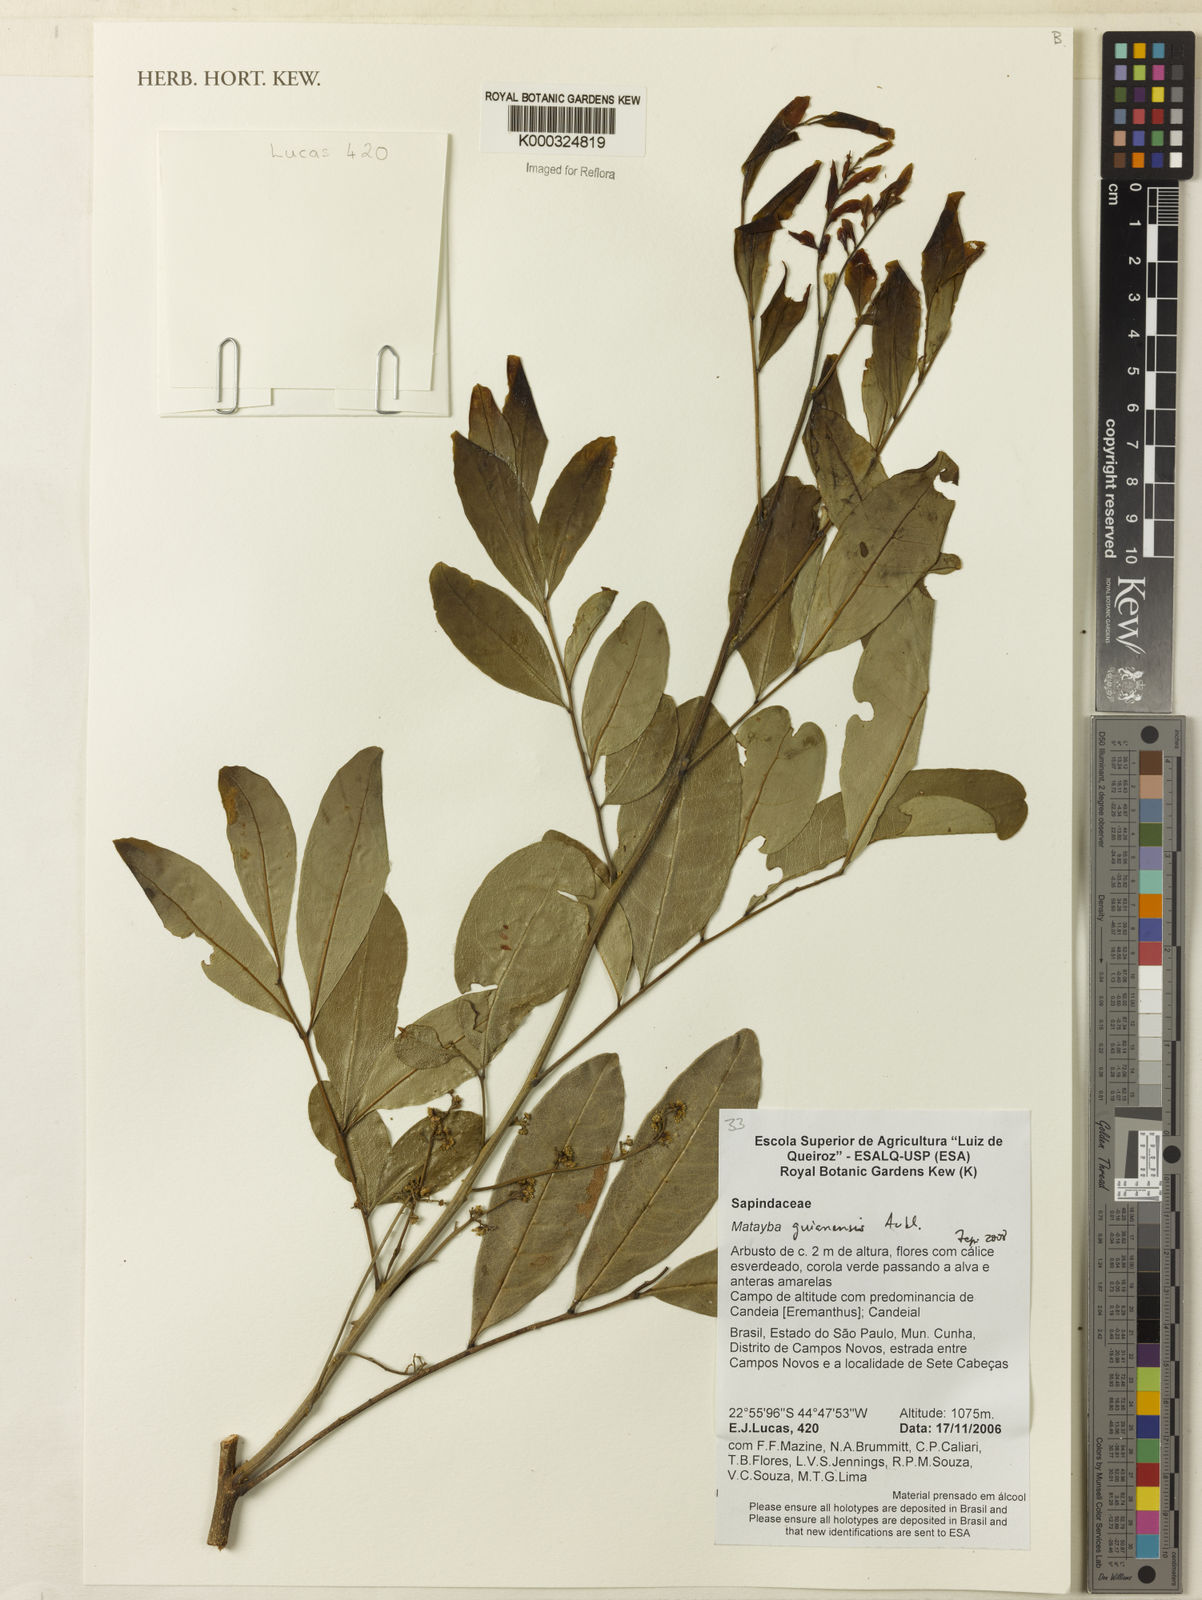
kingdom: Plantae
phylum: Tracheophyta
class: Magnoliopsida
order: Sapindales
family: Sapindaceae
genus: Matayba
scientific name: Matayba guianensis
